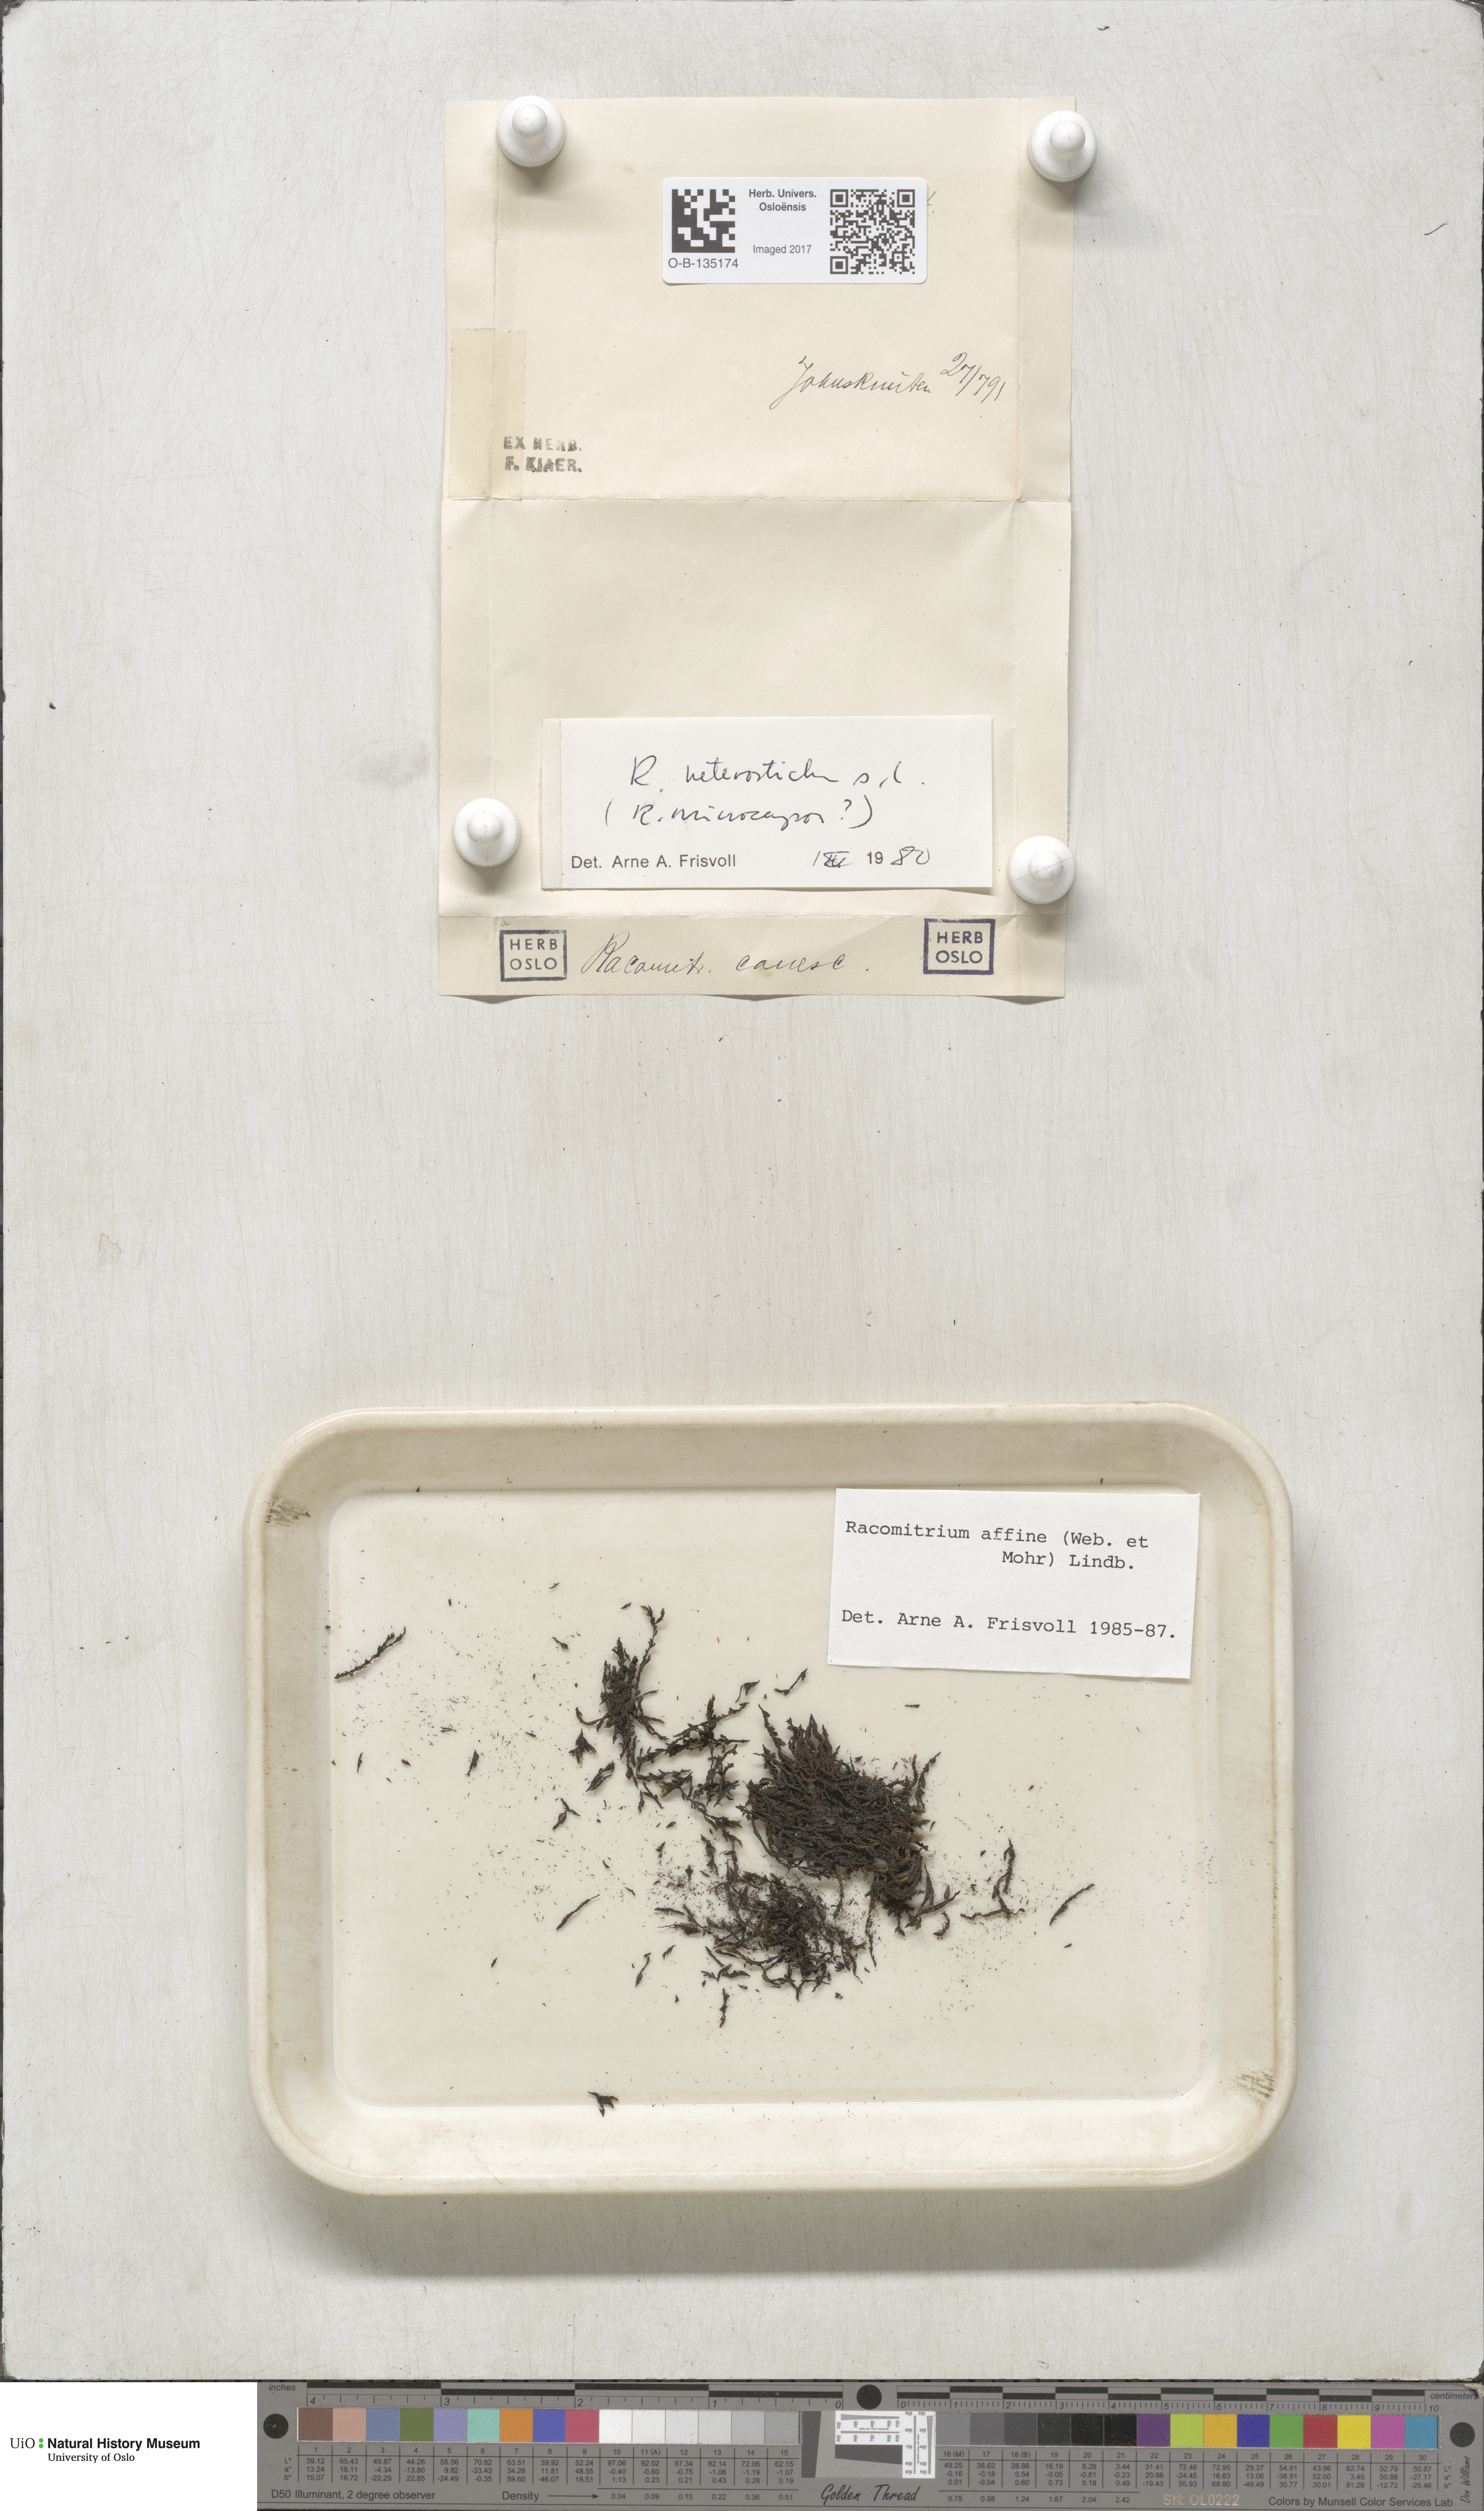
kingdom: Plantae
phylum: Bryophyta
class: Bryopsida
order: Grimmiales
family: Grimmiaceae
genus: Bucklandiella
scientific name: Bucklandiella affinis
